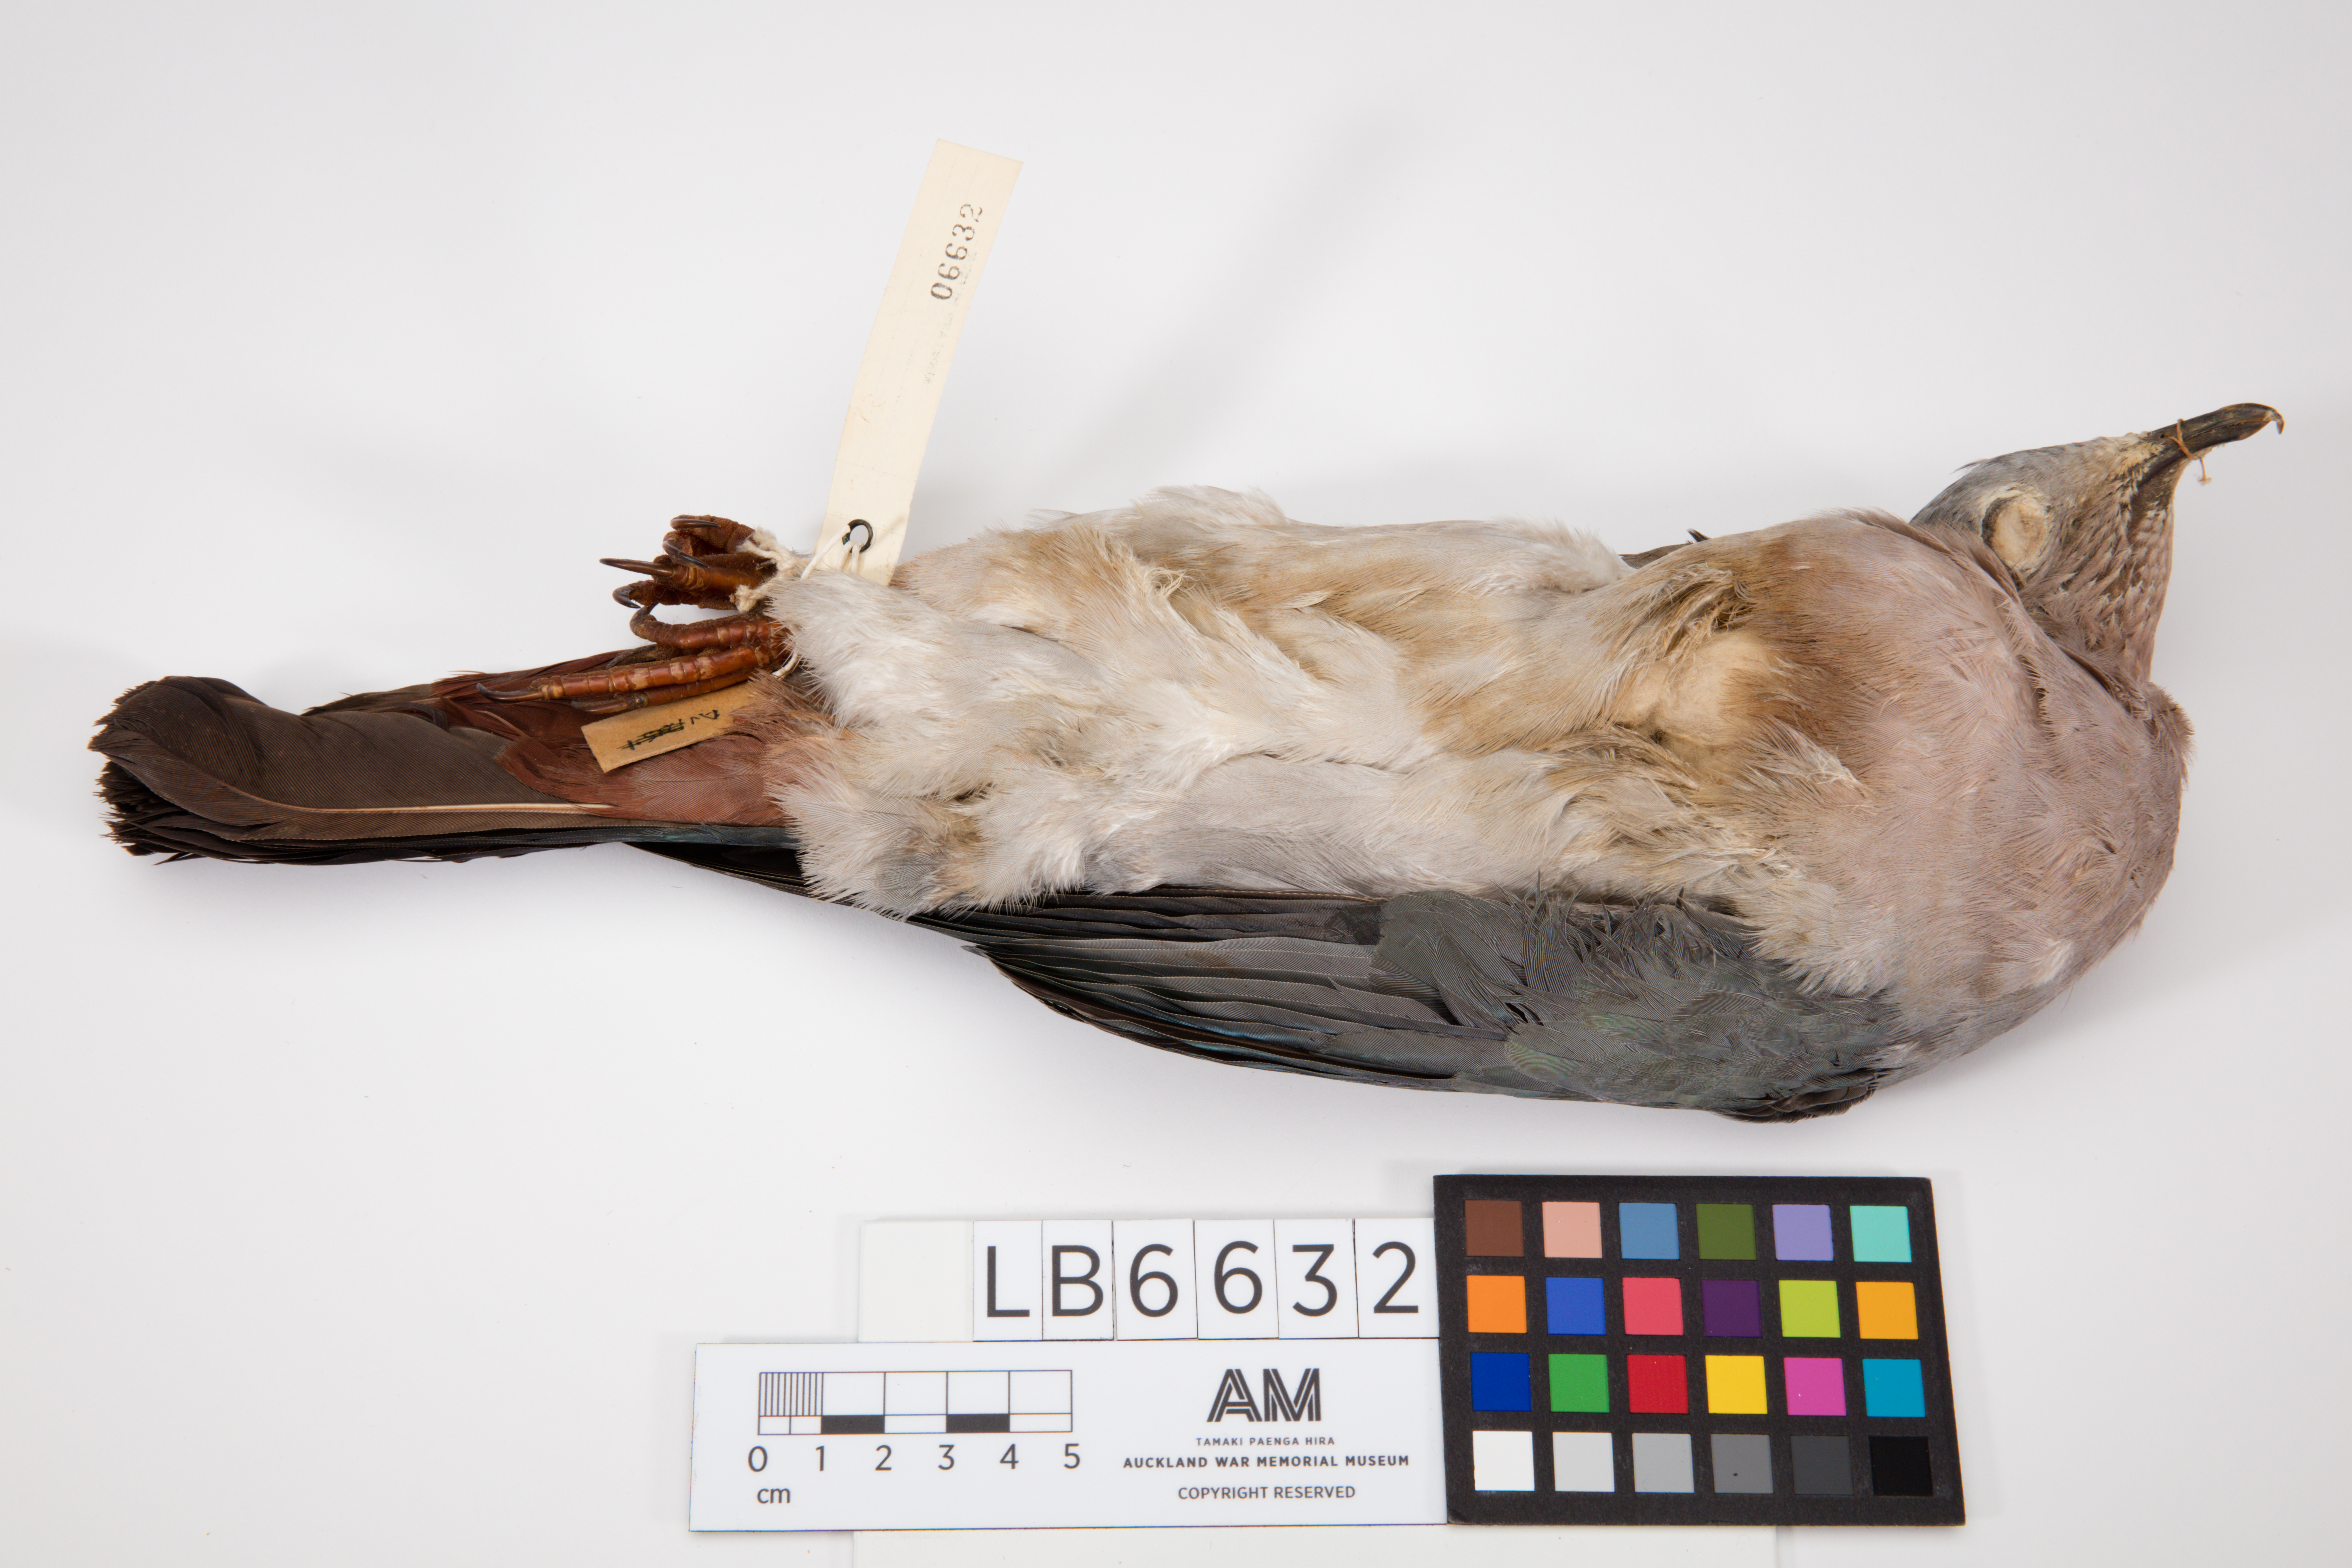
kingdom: Animalia
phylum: Chordata
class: Aves
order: Columbiformes
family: Columbidae
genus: Ducula
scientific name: Ducula pistrinaria
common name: Island imperial-pigeon
